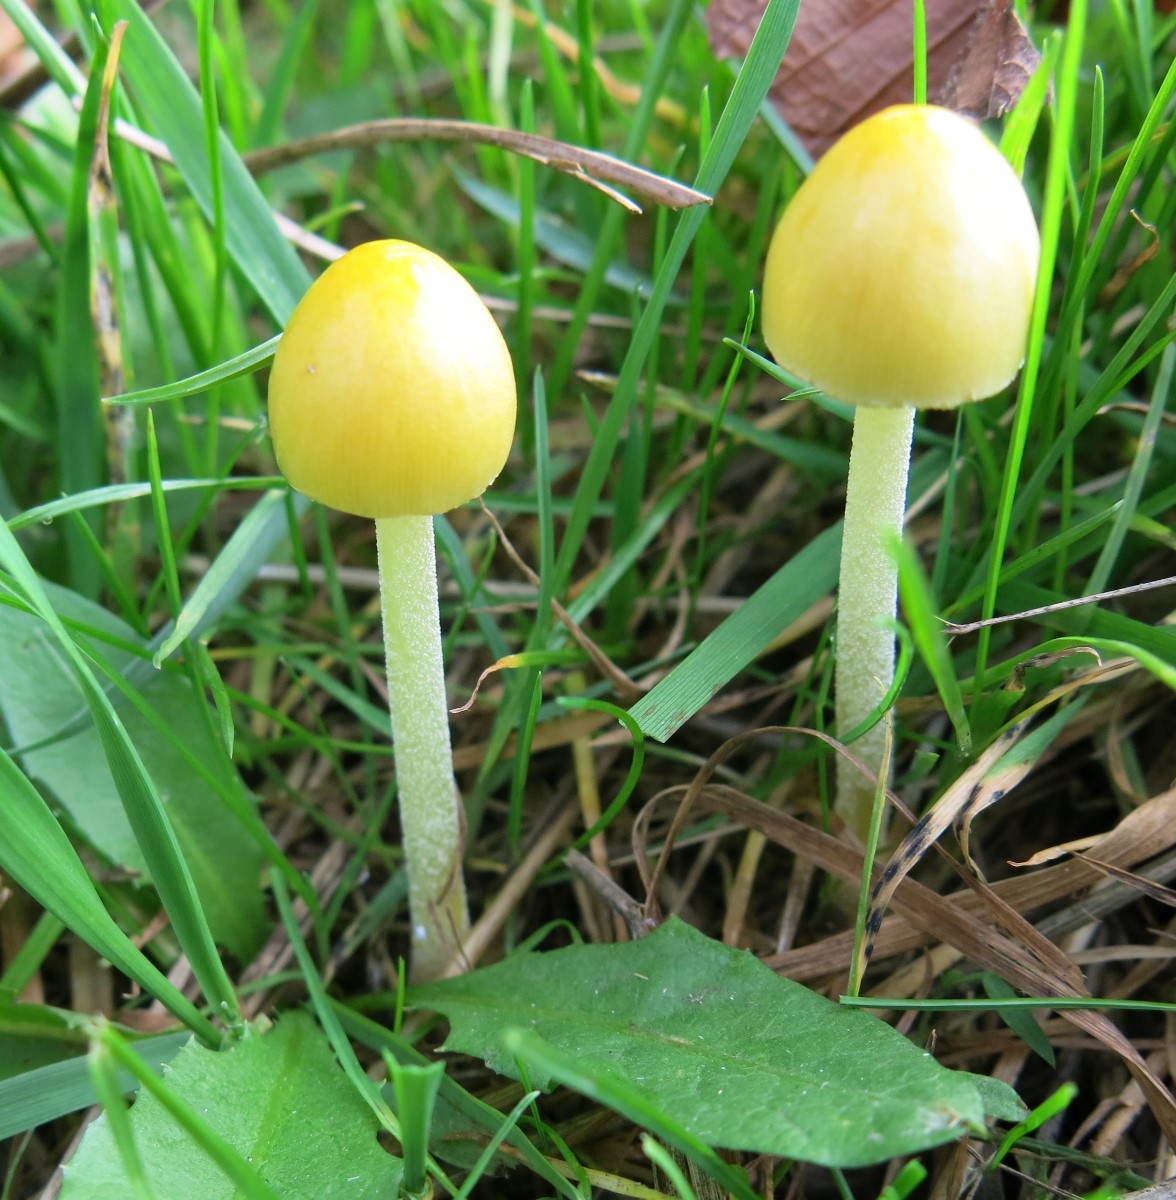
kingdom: Fungi
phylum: Basidiomycota
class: Agaricomycetes
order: Agaricales
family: Bolbitiaceae
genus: Bolbitius
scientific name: Bolbitius titubans
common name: almindelig gulhat
